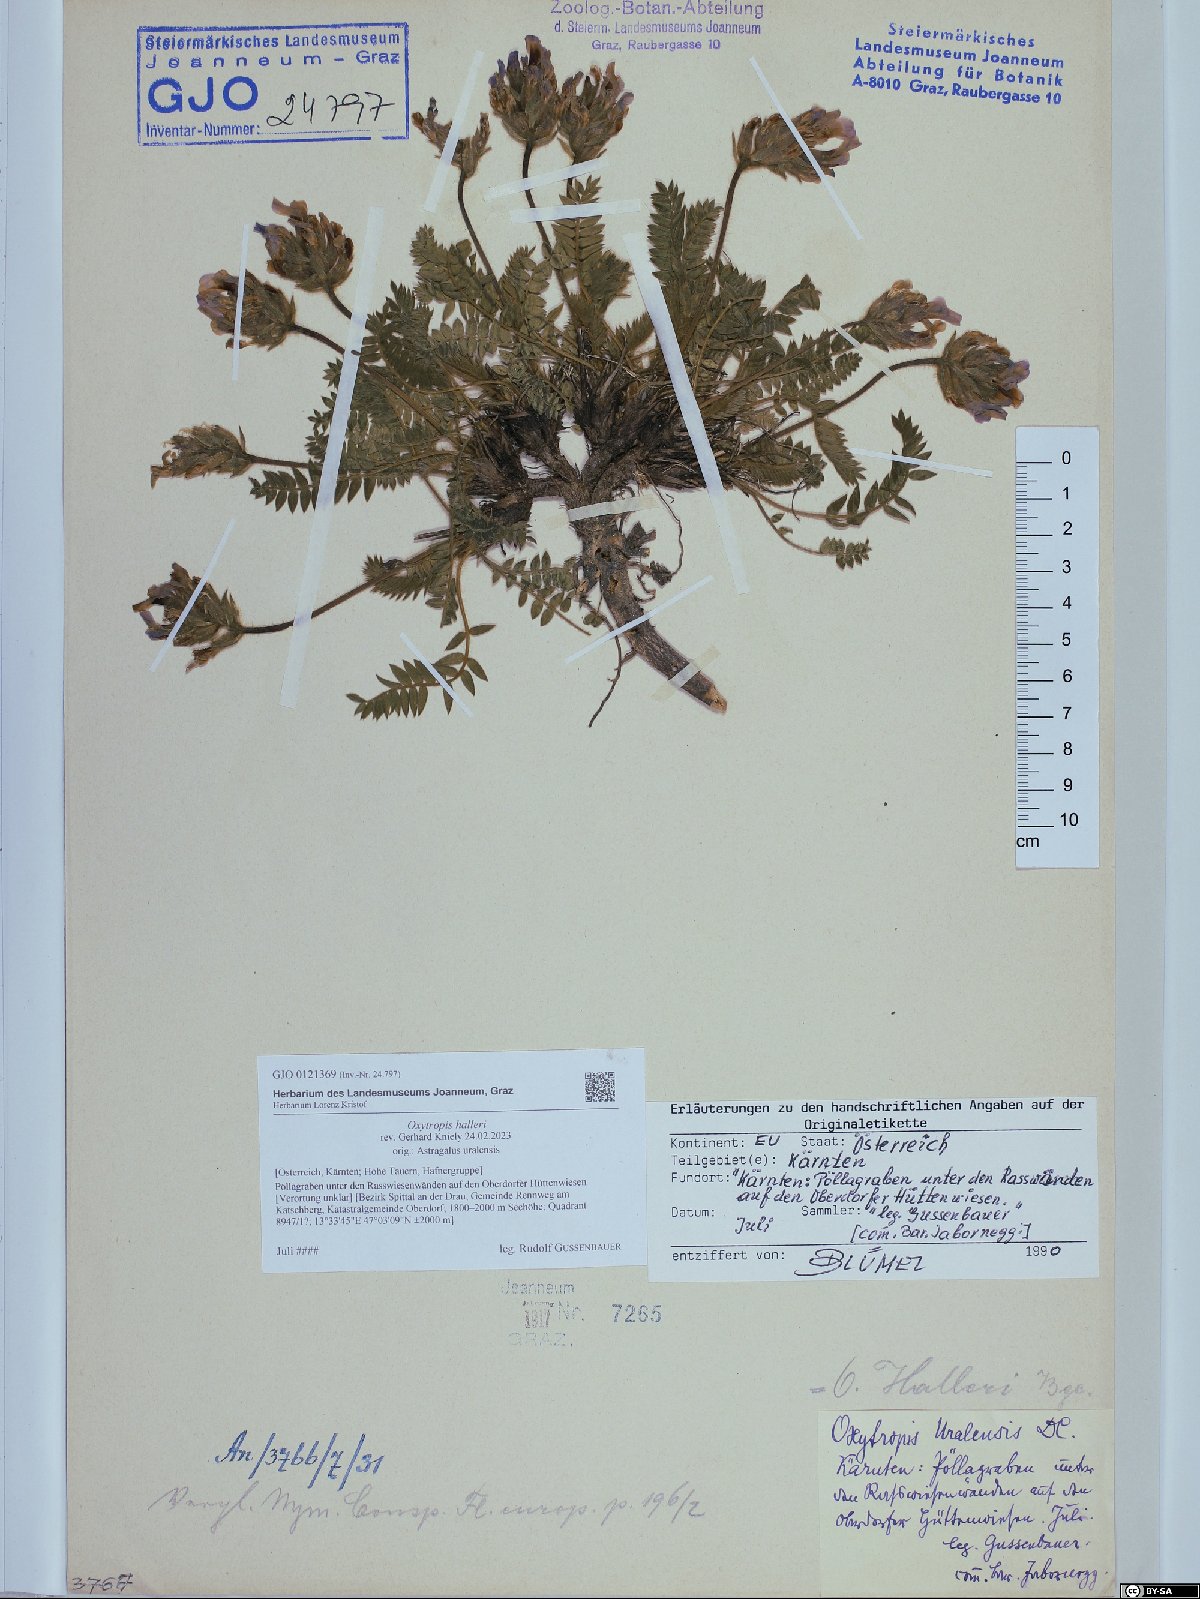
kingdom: Plantae
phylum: Tracheophyta
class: Magnoliopsida
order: Fabales
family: Fabaceae
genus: Oxytropis
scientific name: Oxytropis halleri
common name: Purple oxytropis
